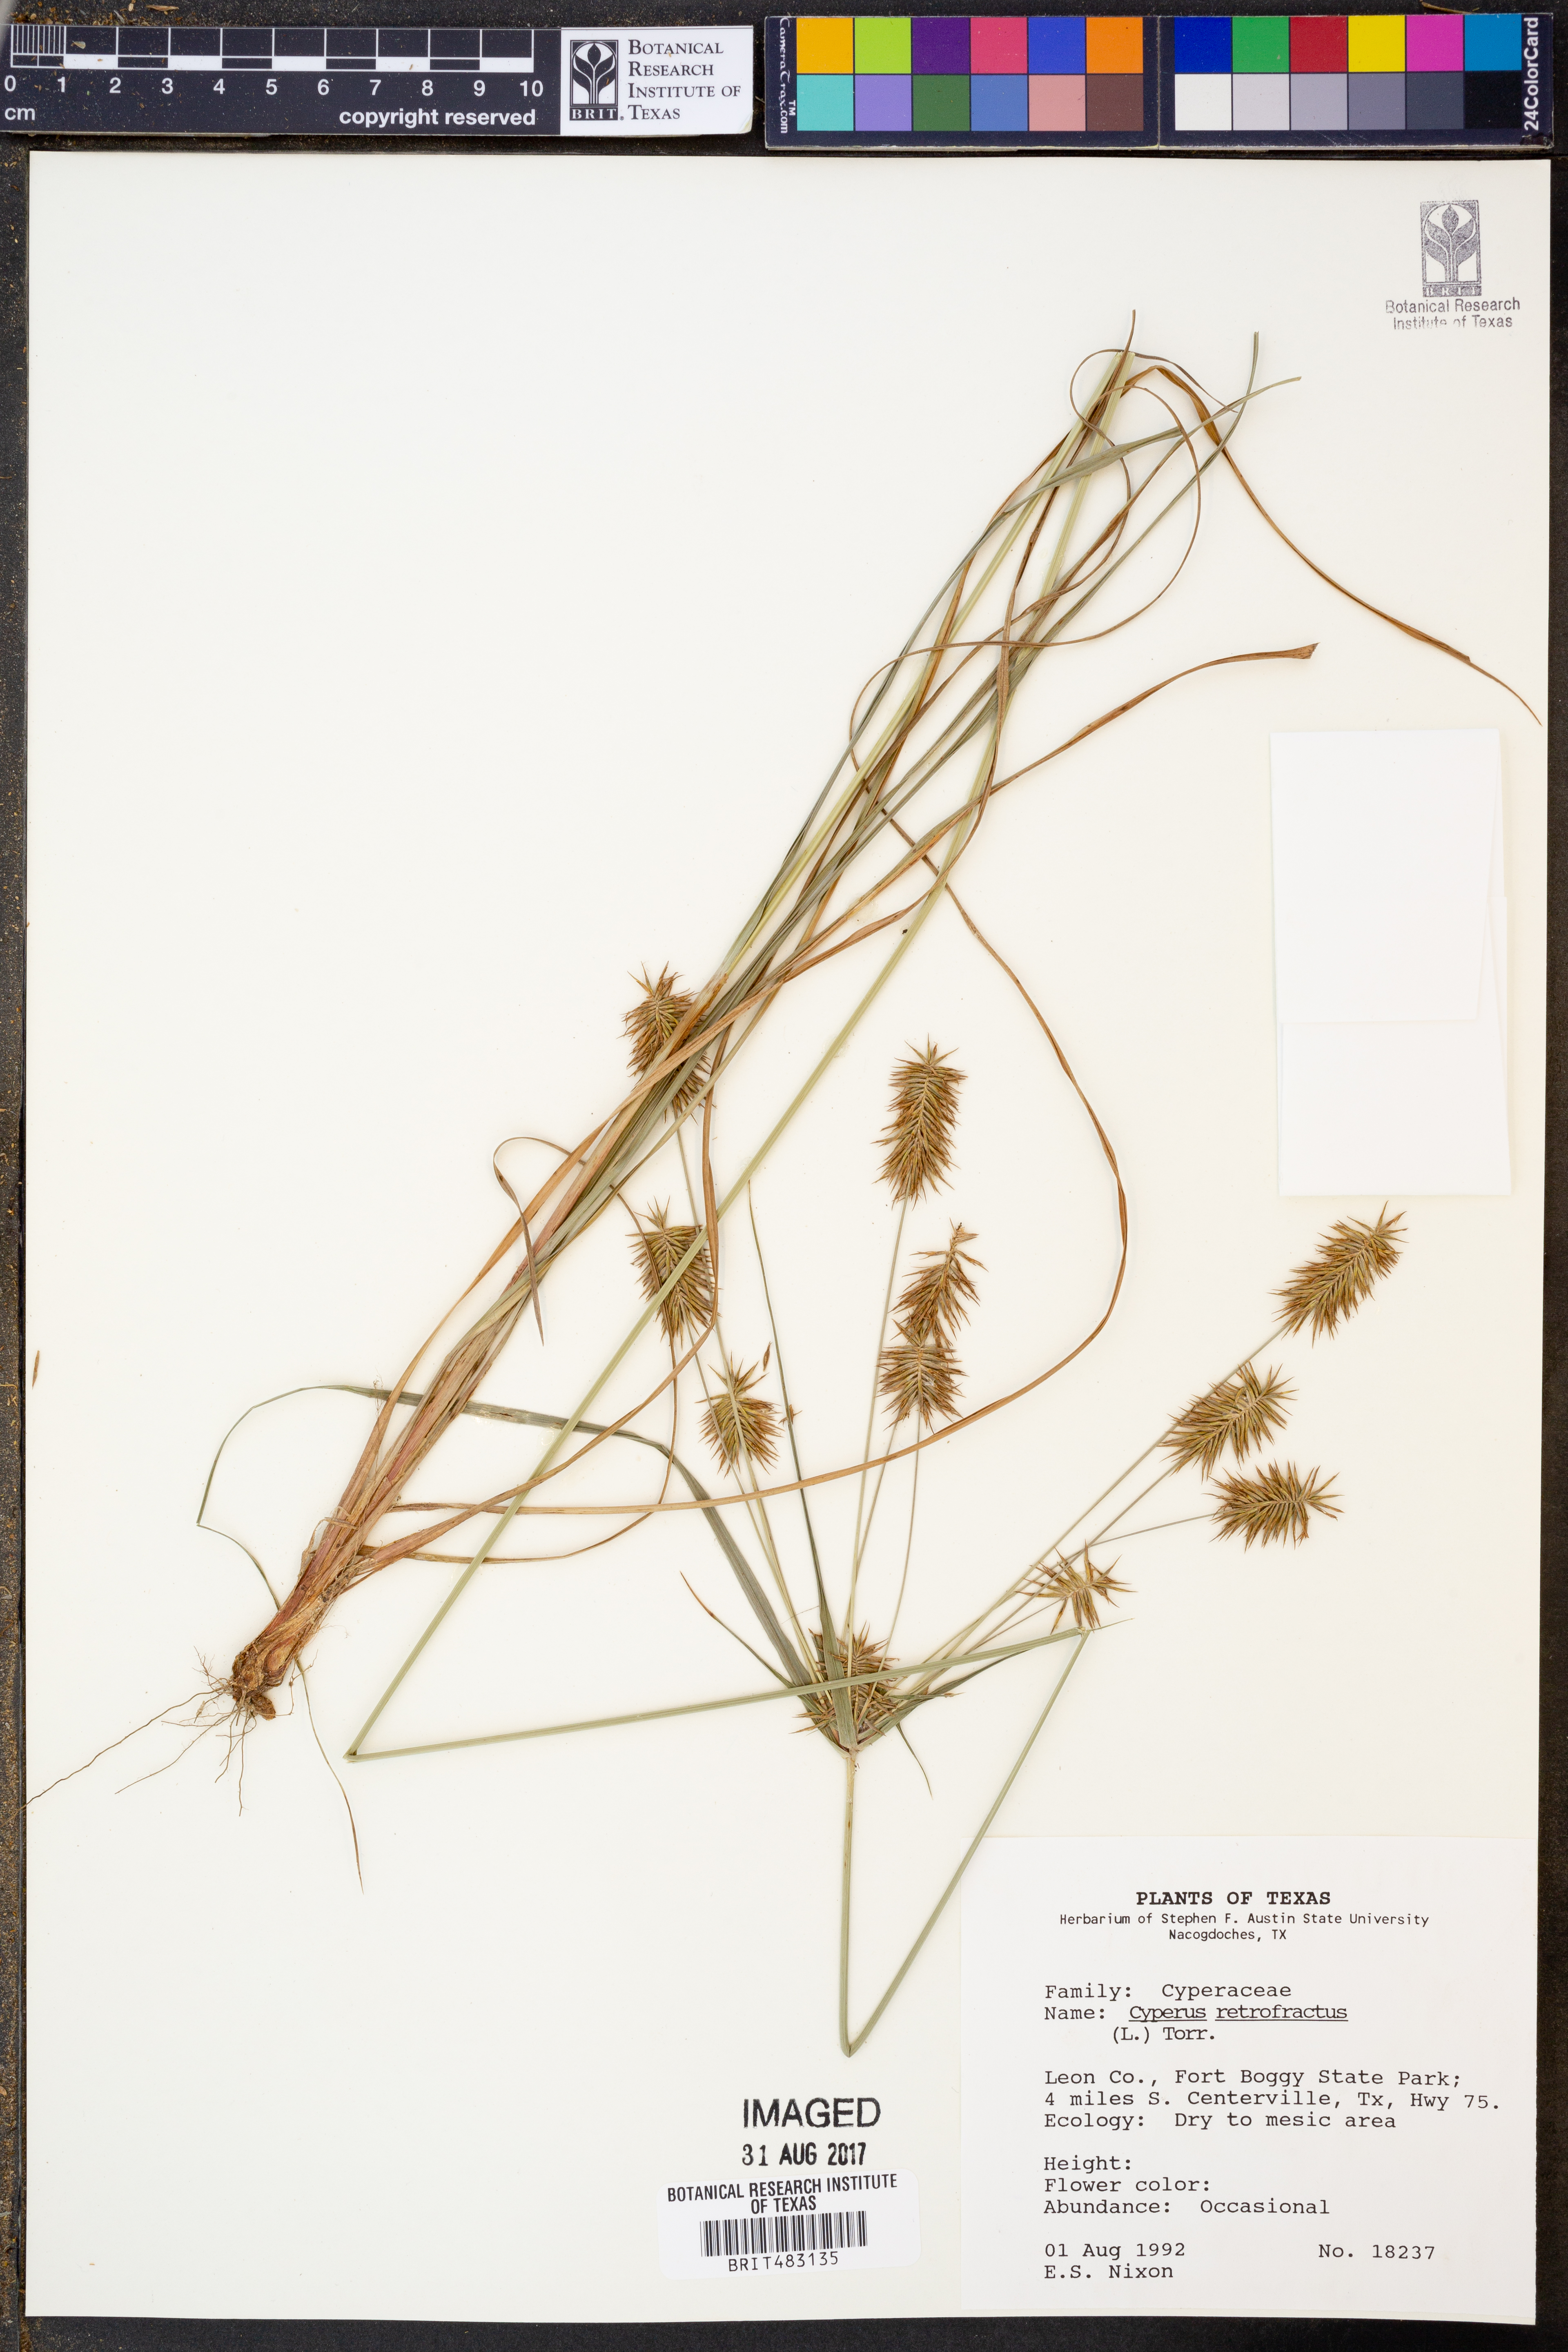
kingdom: Plantae
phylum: Tracheophyta
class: Liliopsida
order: Poales
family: Cyperaceae
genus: Cyperus
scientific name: Cyperus retrofractus
